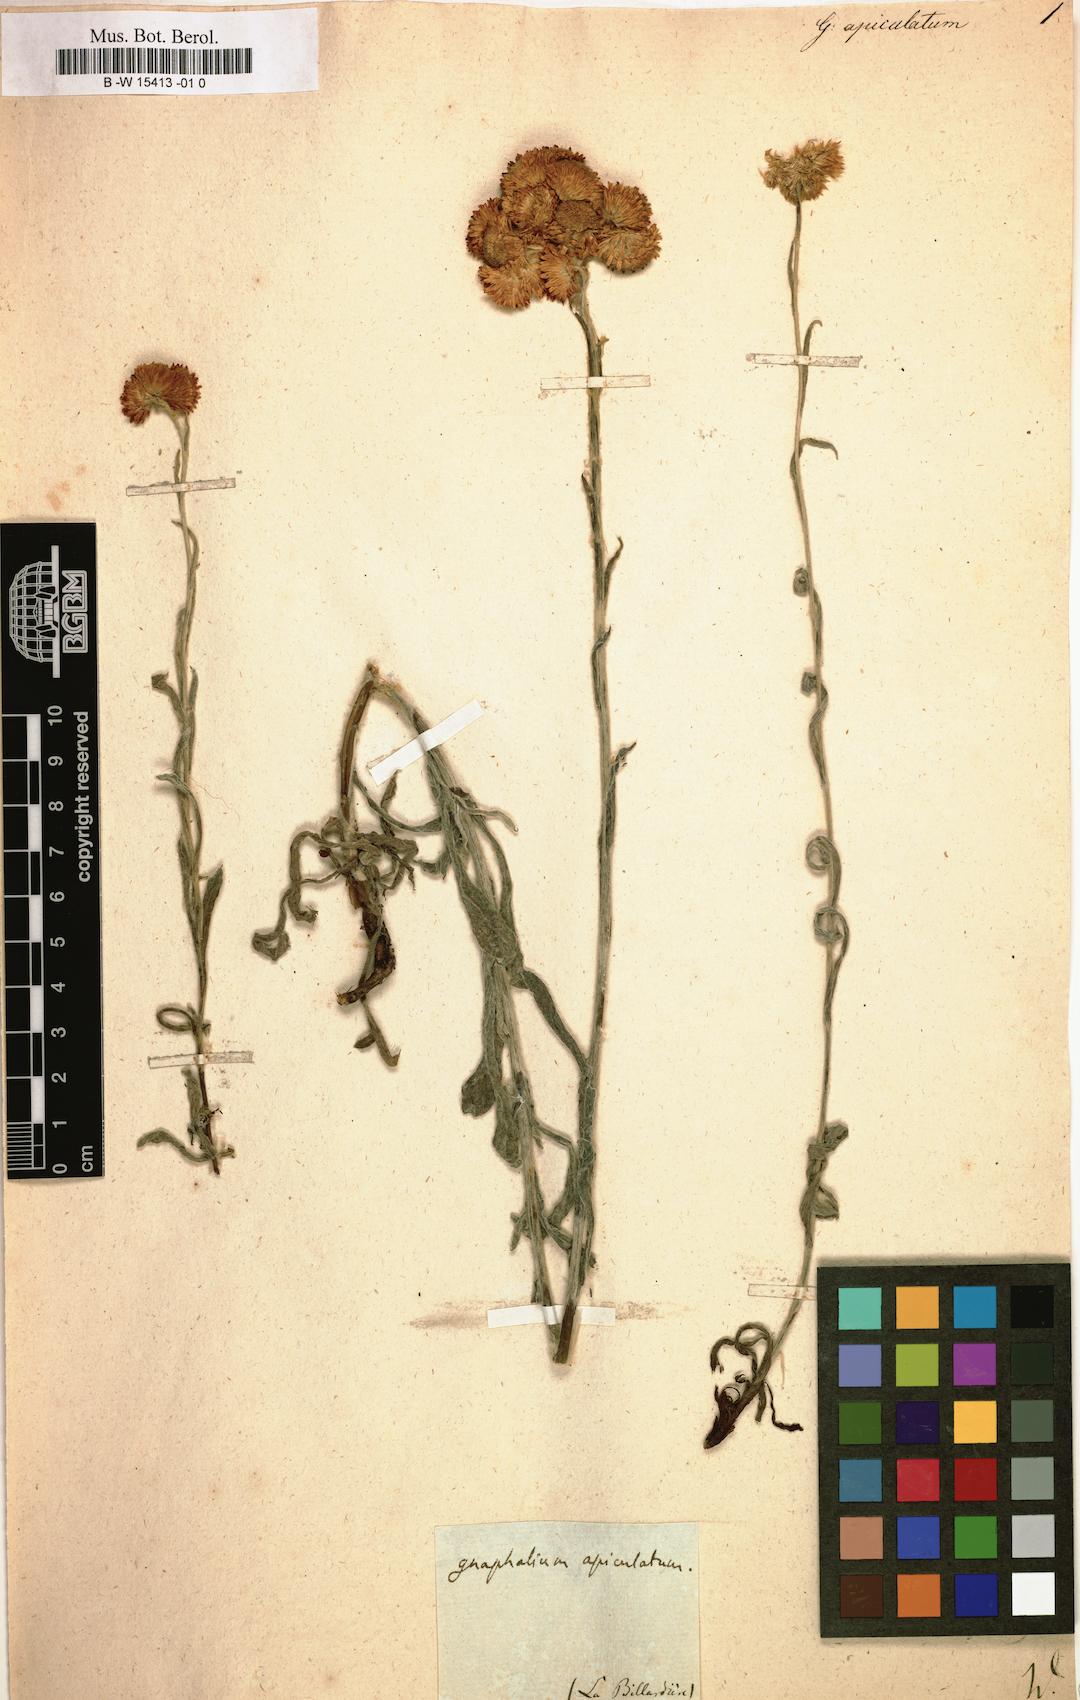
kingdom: Plantae
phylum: Tracheophyta
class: Magnoliopsida
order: Asterales
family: Asteraceae
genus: Chrysocephalum
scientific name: Chrysocephalum apiculatum
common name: Common everlasting
